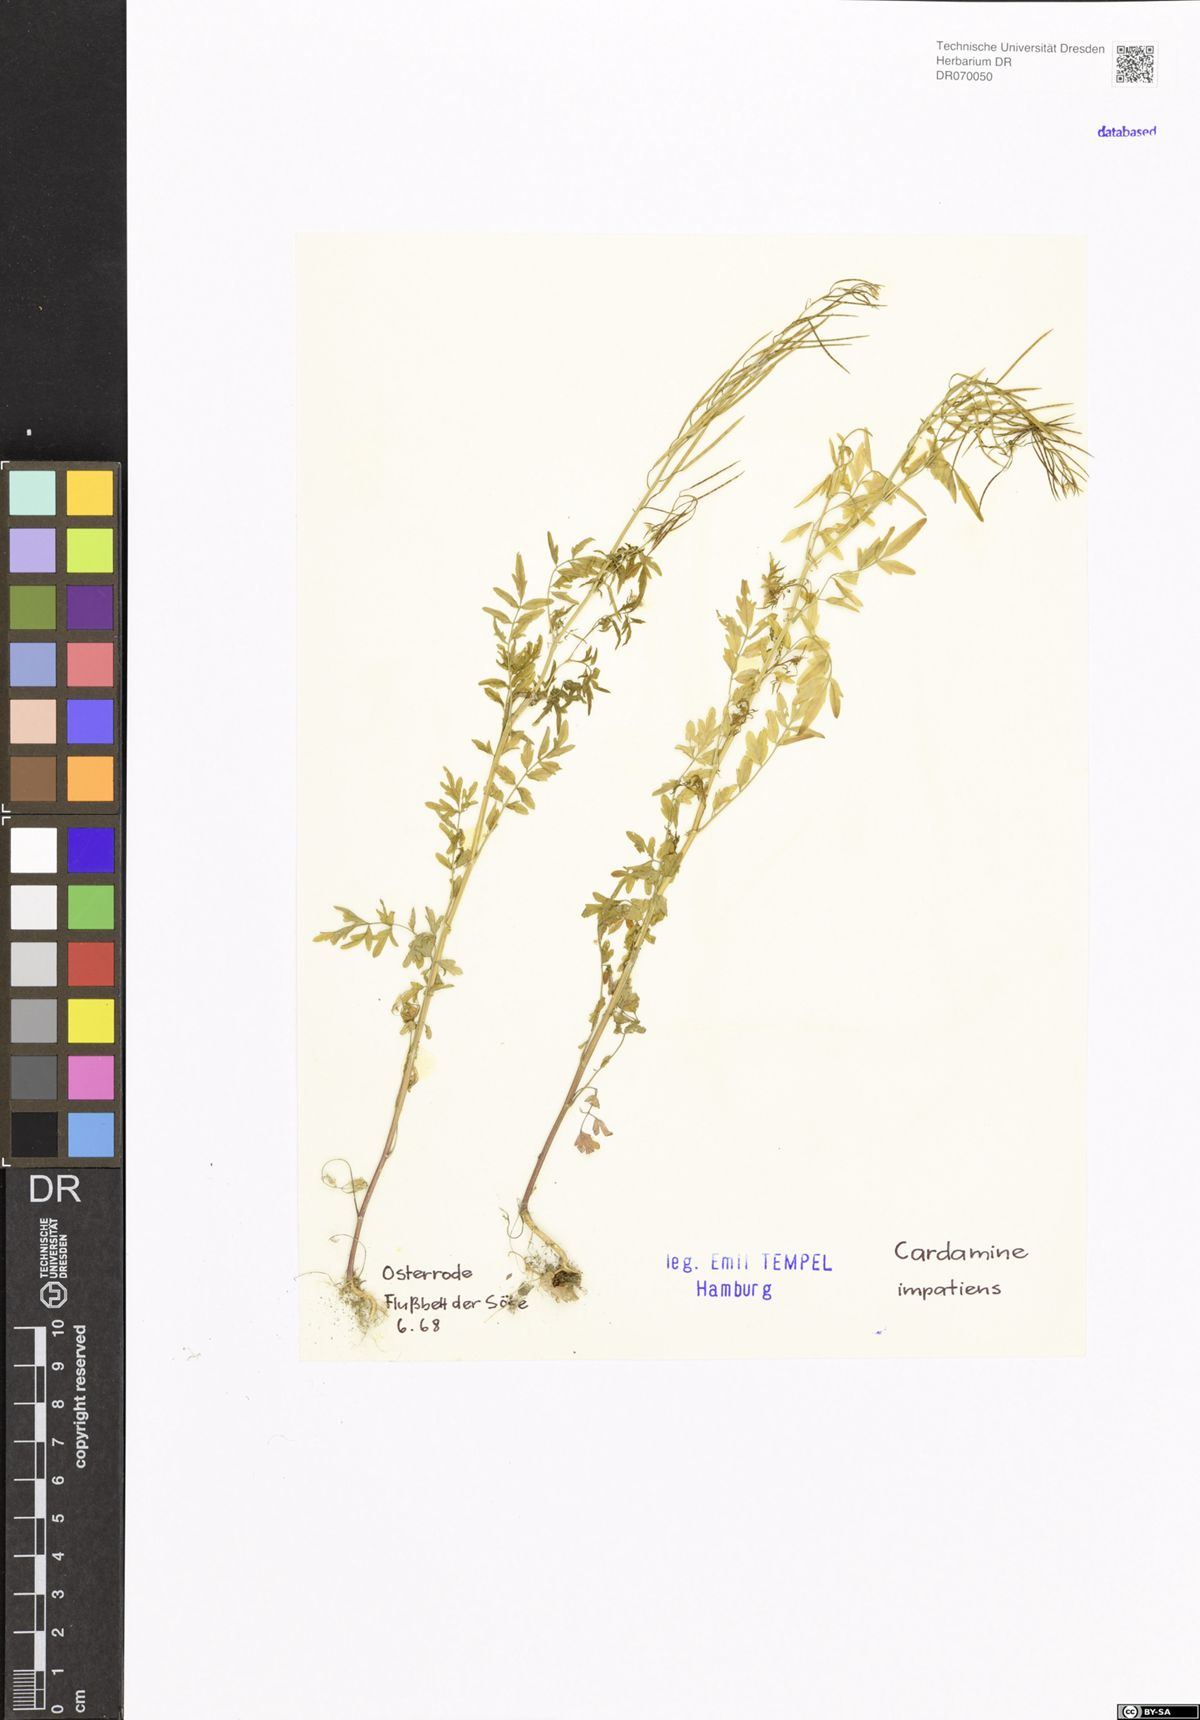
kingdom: Plantae
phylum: Tracheophyta
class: Magnoliopsida
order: Brassicales
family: Brassicaceae
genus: Cardamine
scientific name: Cardamine impatiens
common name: Narrow-leaved bitter-cress
